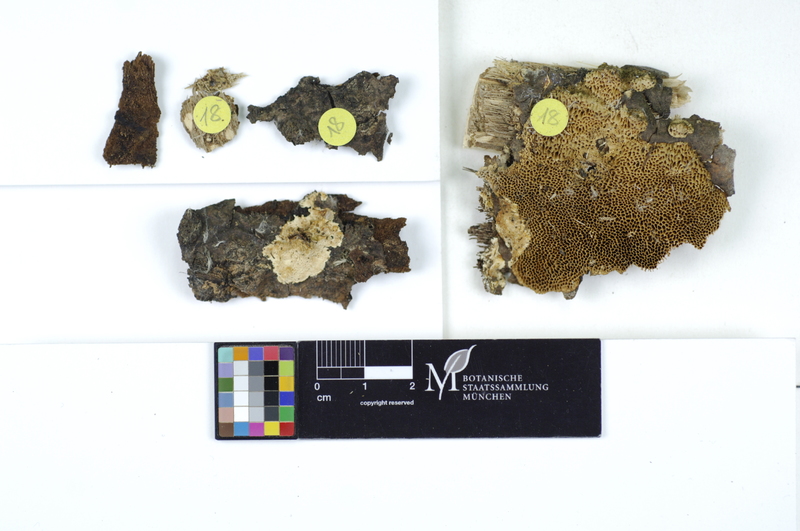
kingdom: Fungi
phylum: Basidiomycota
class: Agaricomycetes
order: Polyporales
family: Steccherinaceae
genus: Antrodiella
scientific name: Antrodiella semisupina
